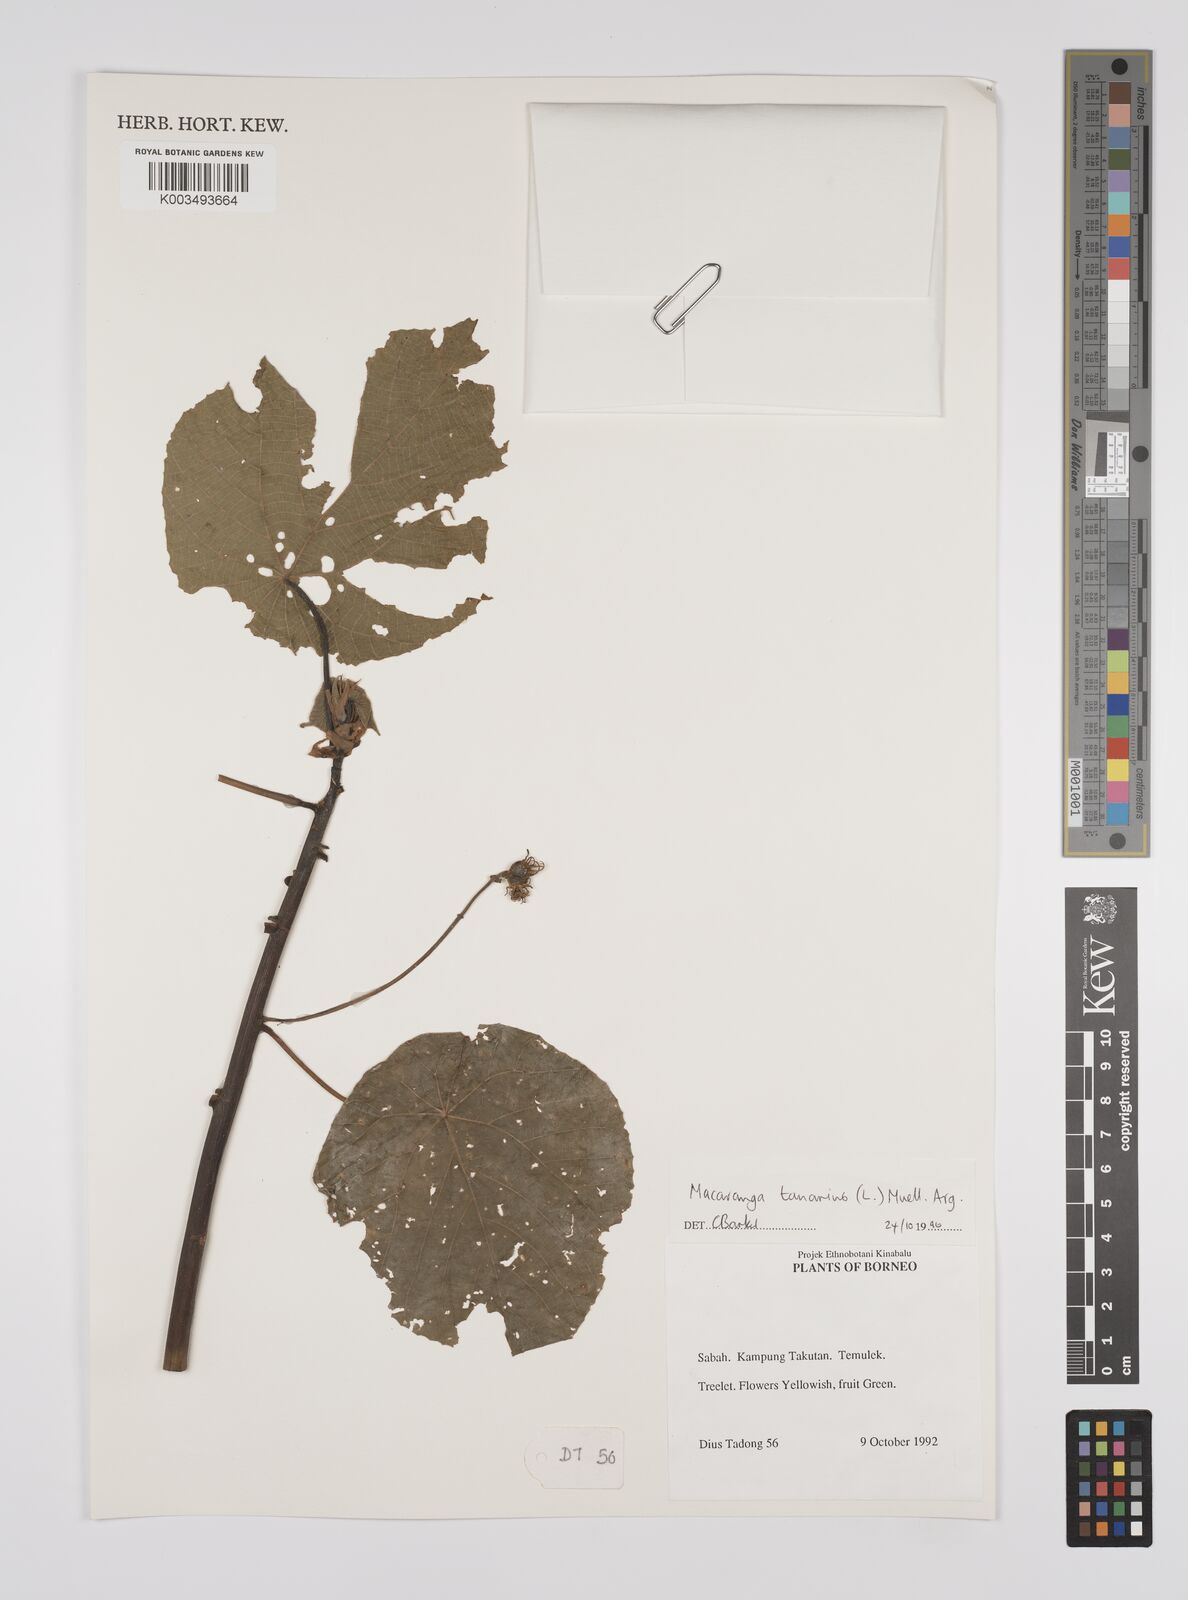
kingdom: Plantae
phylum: Tracheophyta
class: Magnoliopsida
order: Malpighiales
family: Euphorbiaceae
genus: Macaranga
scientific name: Macaranga tanarius
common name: Parasol leaf tree
